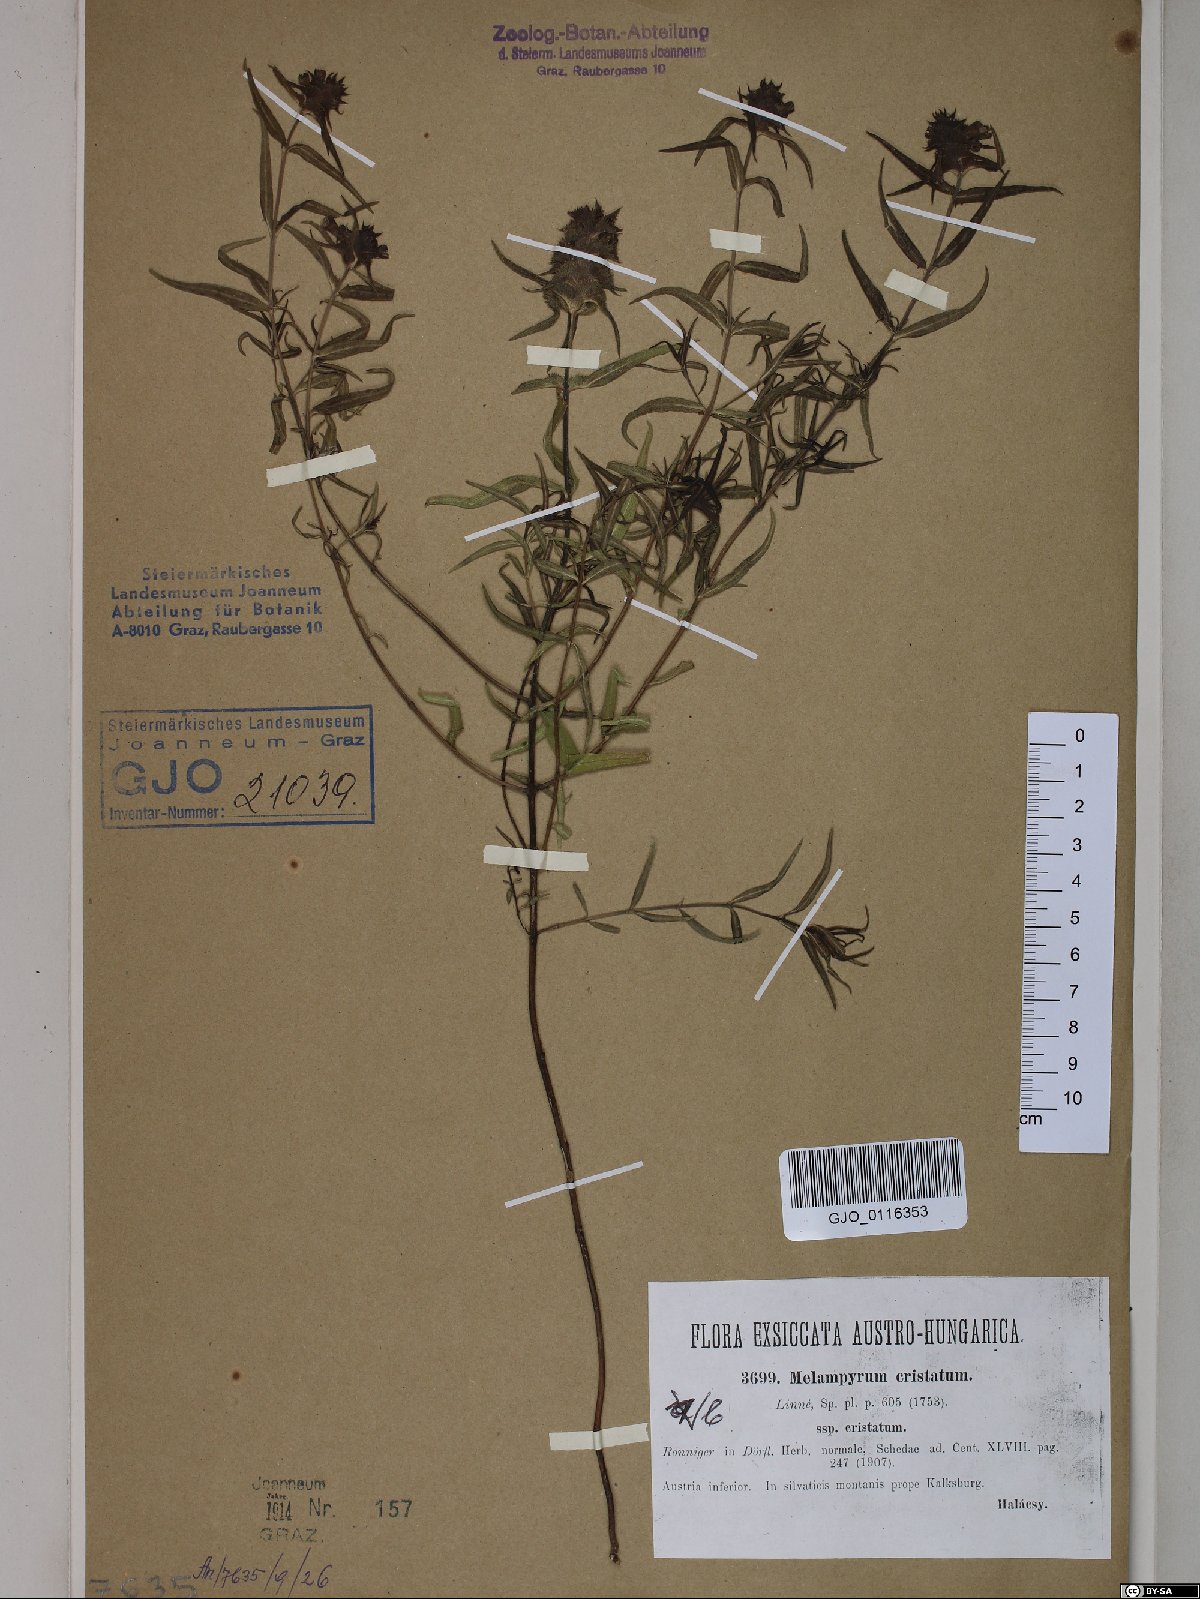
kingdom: Plantae
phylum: Tracheophyta
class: Magnoliopsida
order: Lamiales
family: Orobanchaceae
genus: Melampyrum
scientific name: Melampyrum cristatum
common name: Crested cow-wheat
